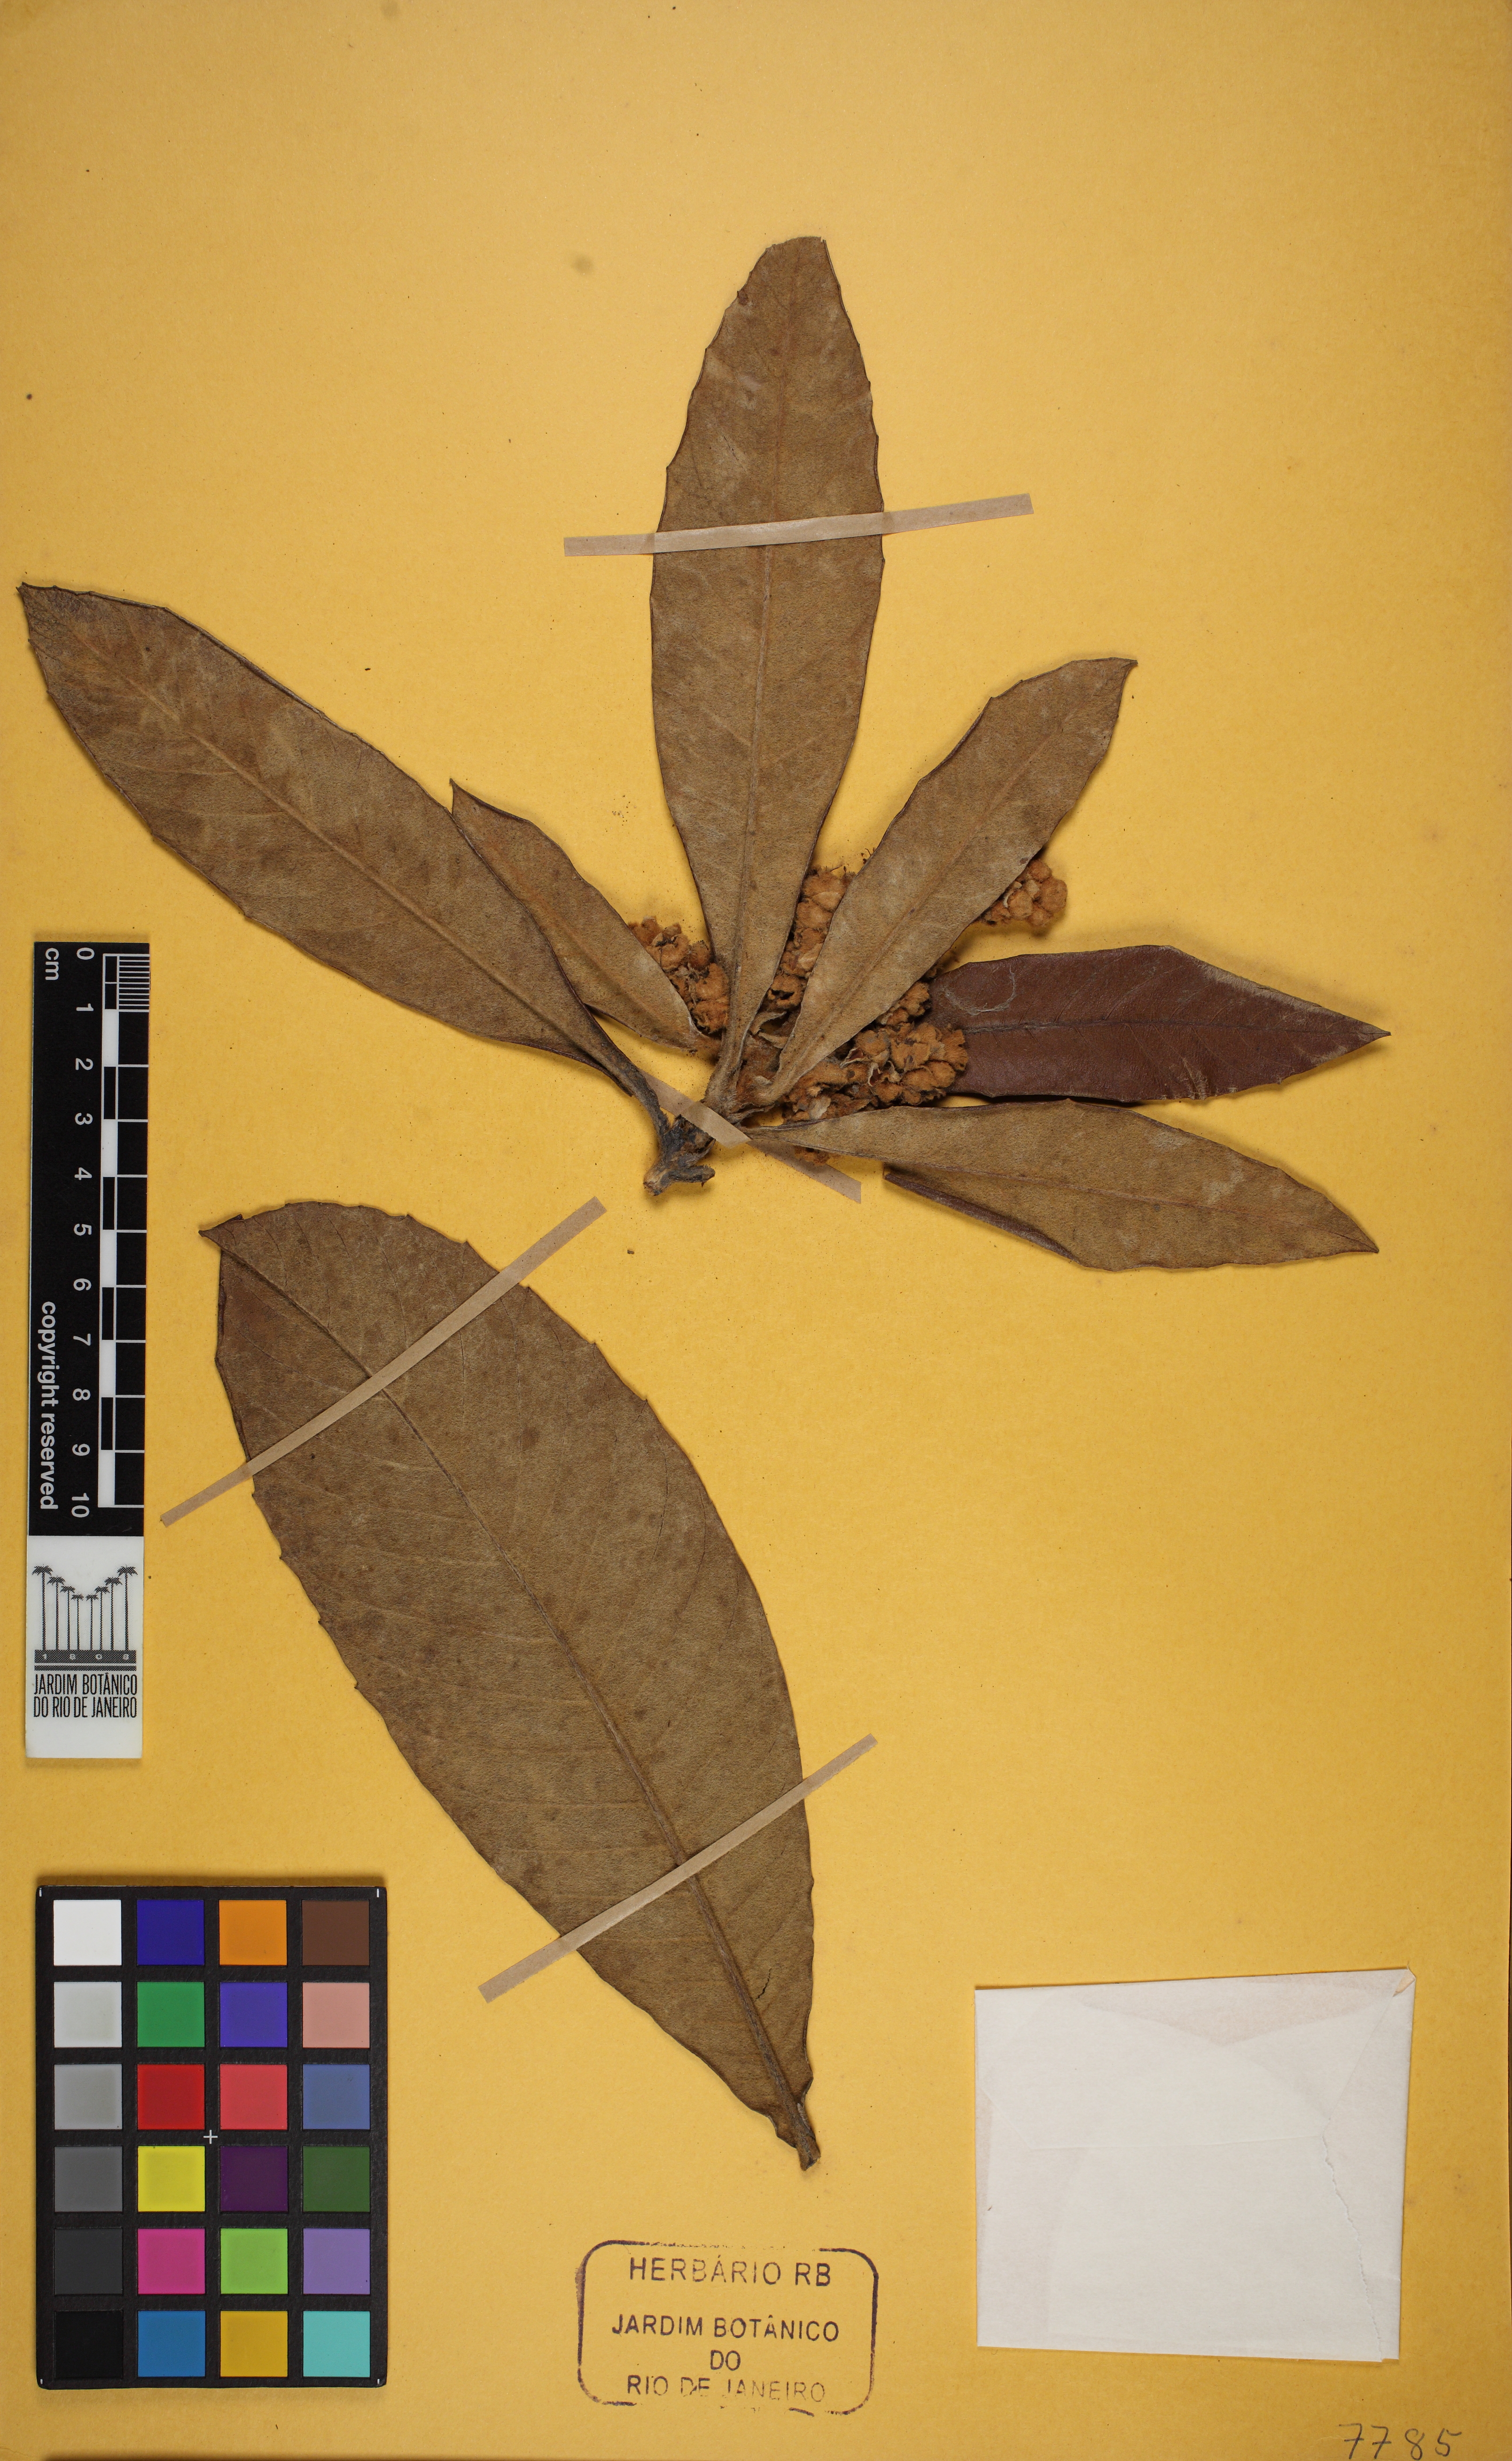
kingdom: Plantae
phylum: Tracheophyta
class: Magnoliopsida
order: Rosales
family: Rosaceae
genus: Rhaphiolepis
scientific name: Rhaphiolepis bibas
